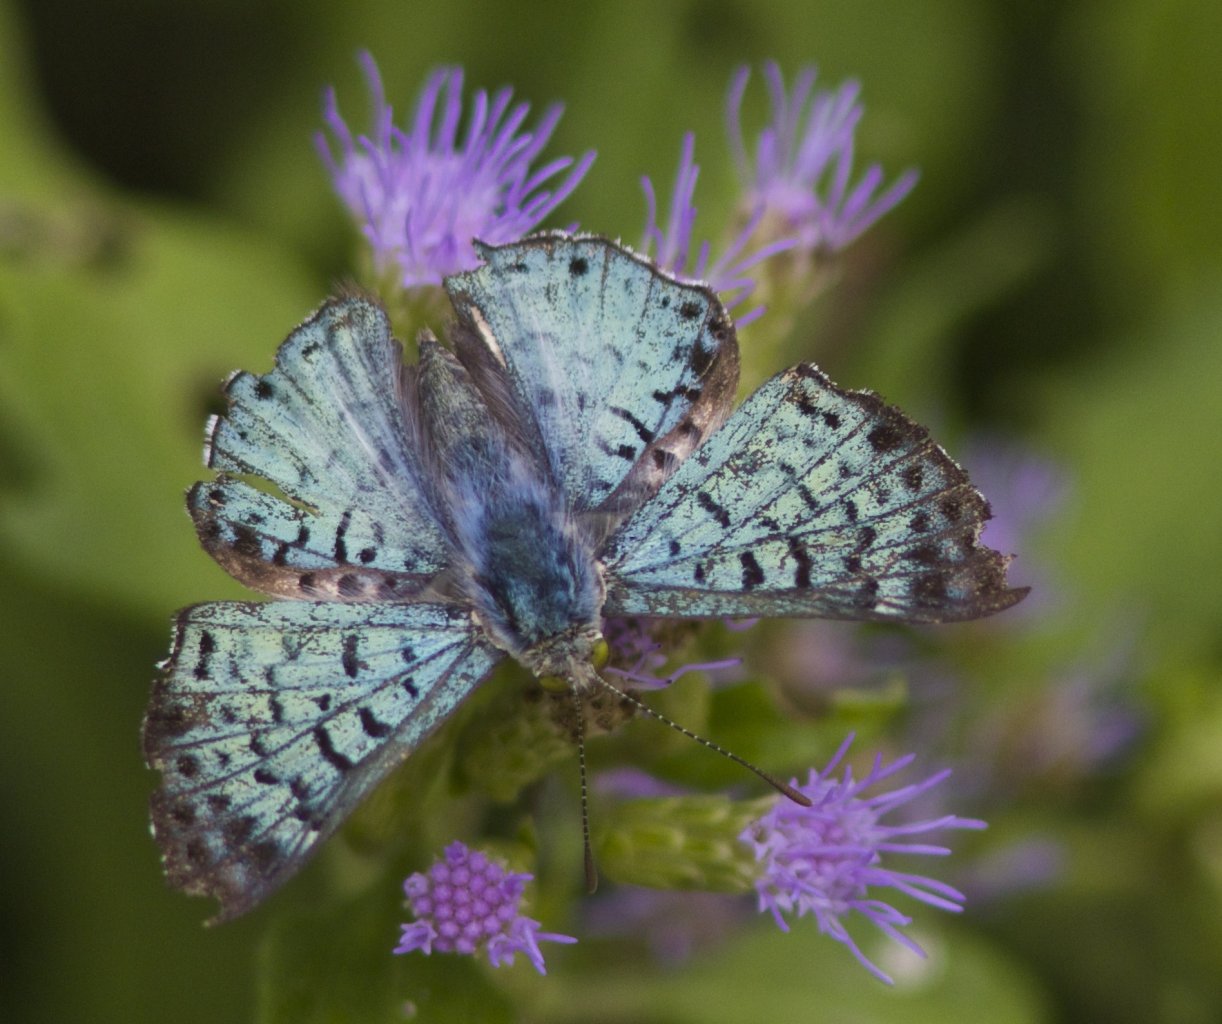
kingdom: Animalia
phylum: Arthropoda
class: Insecta
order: Lepidoptera
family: Riodinidae
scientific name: Riodinidae
